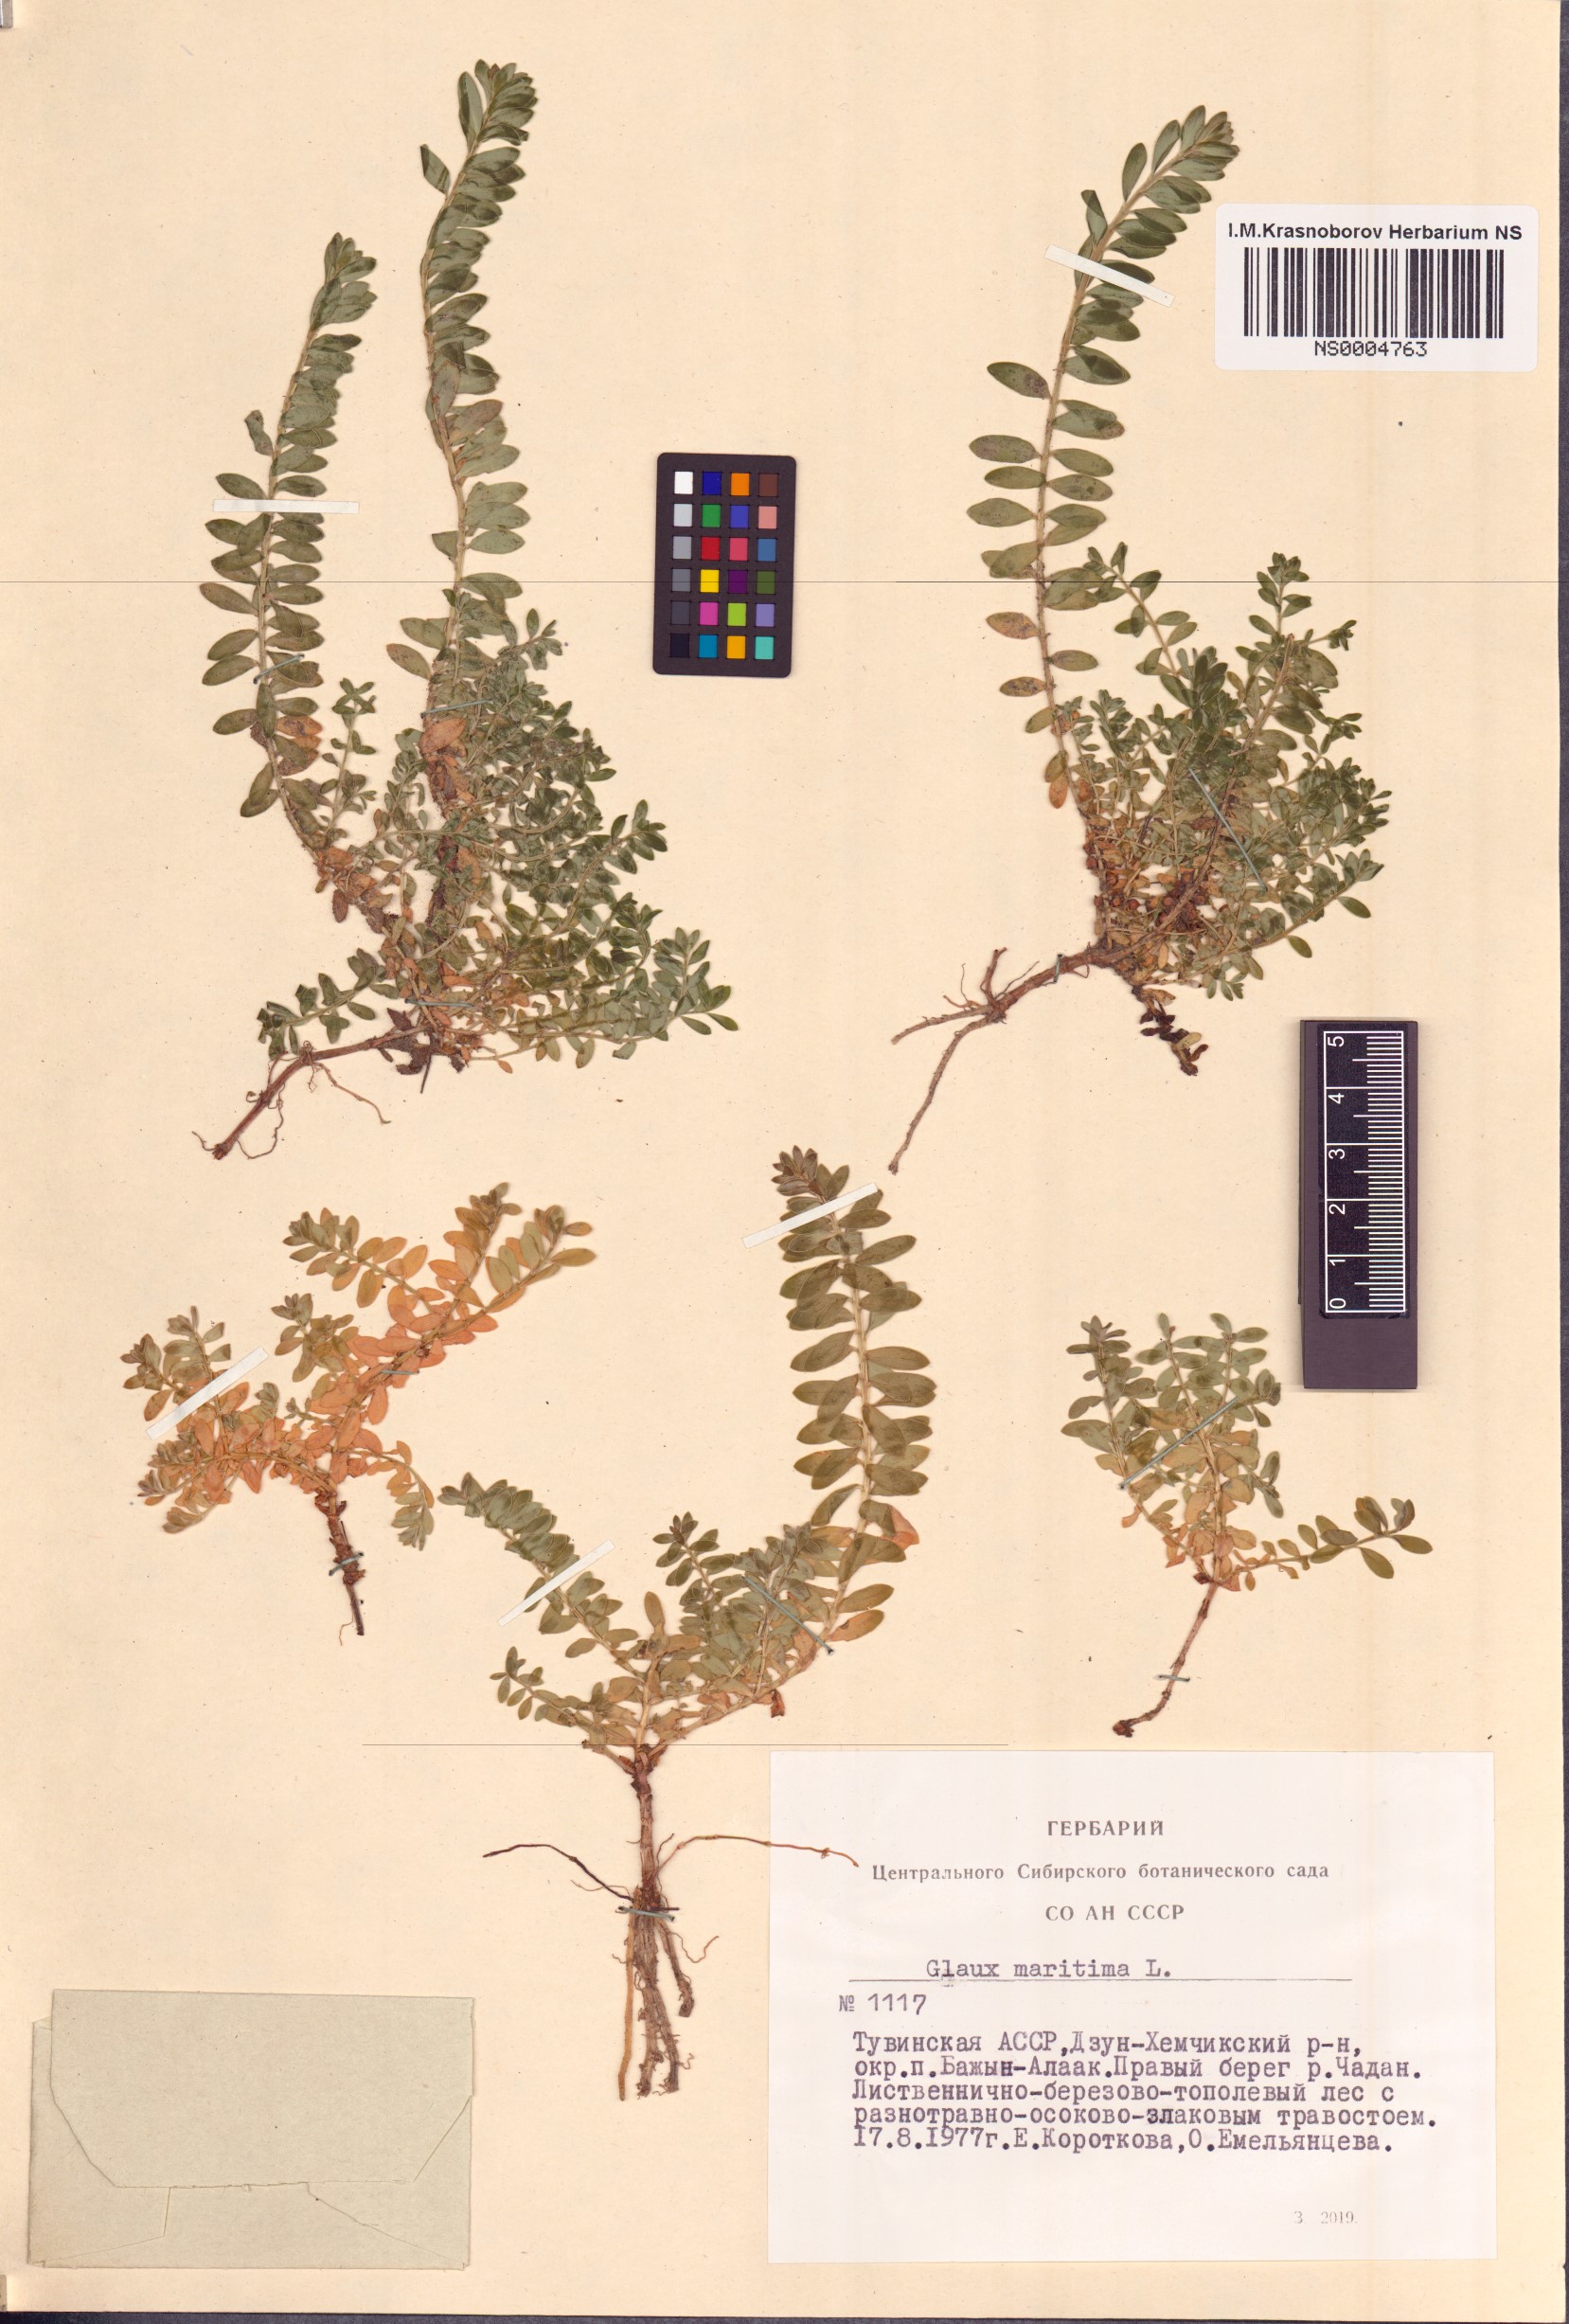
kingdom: Plantae
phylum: Tracheophyta
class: Magnoliopsida
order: Ericales
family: Primulaceae
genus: Lysimachia
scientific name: Lysimachia maritima
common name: Sea milkwort
